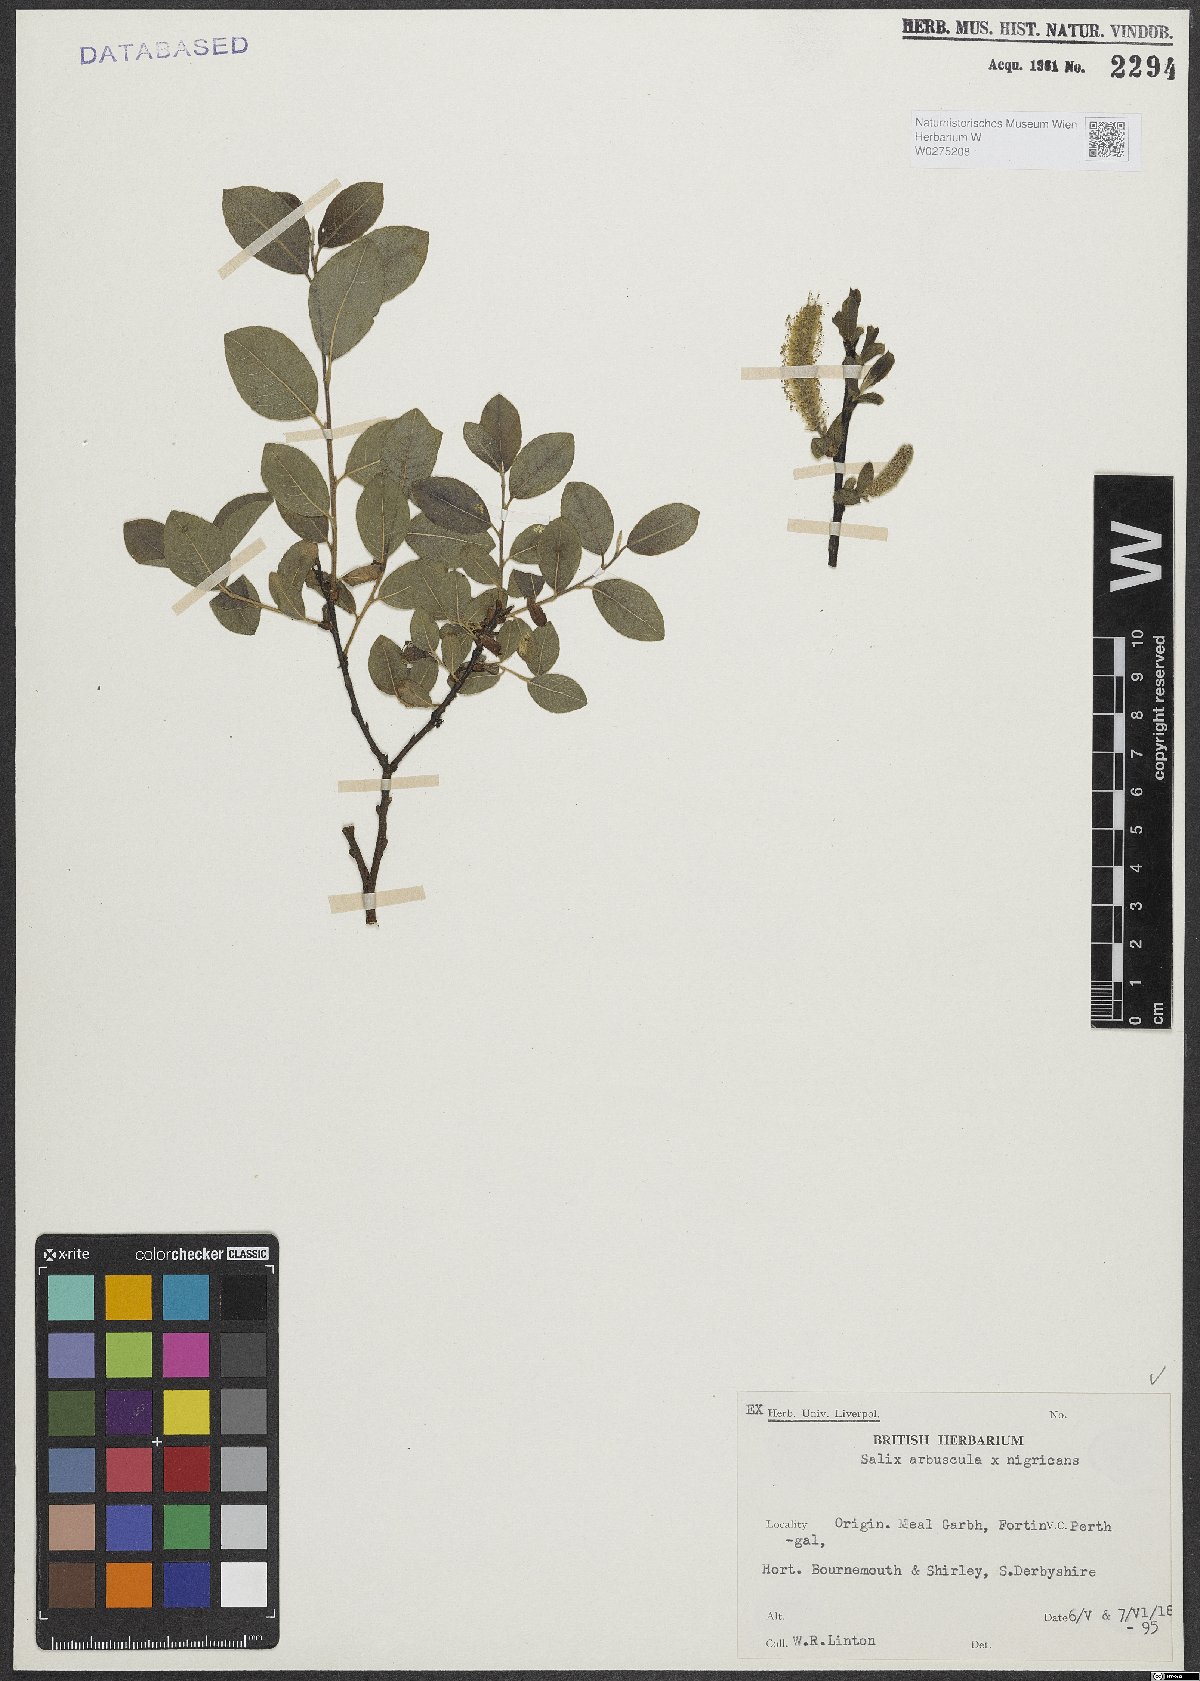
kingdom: Plantae
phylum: Tracheophyta
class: Magnoliopsida
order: Malpighiales
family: Salicaceae
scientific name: Salicaceae
